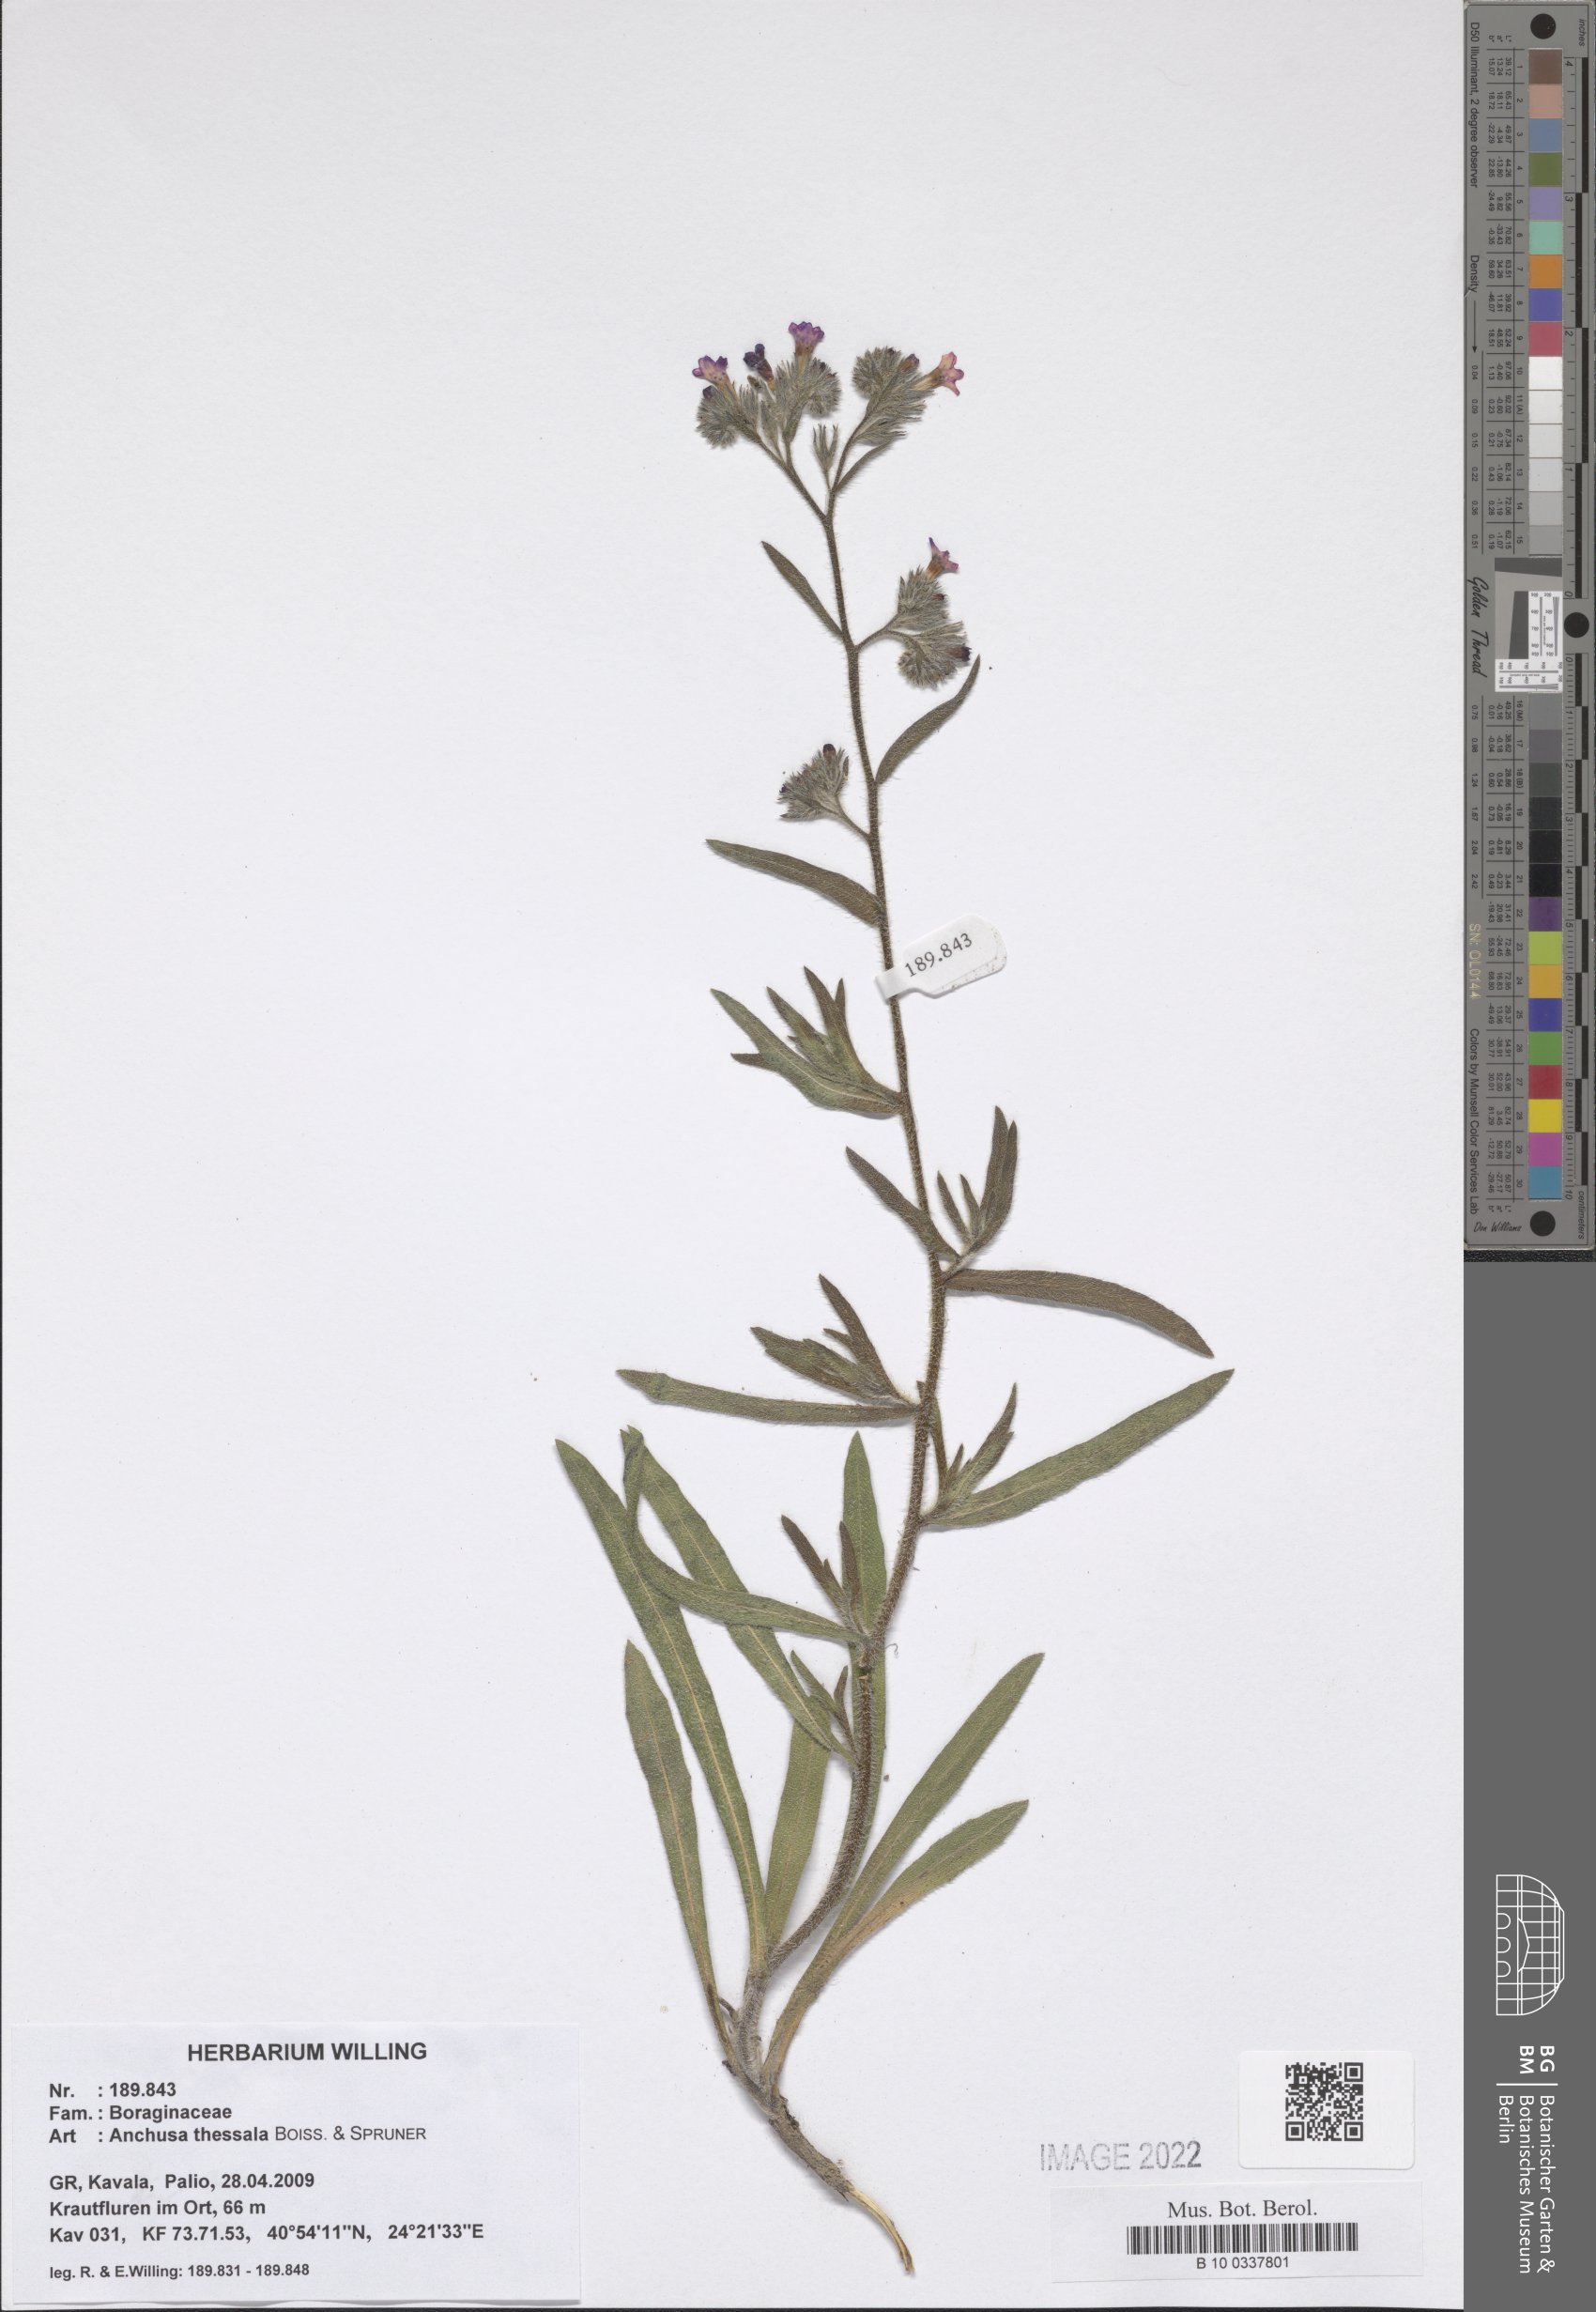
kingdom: Plantae
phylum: Tracheophyta
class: Magnoliopsida
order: Boraginales
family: Boraginaceae
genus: Anchusa
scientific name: Anchusa thessala
